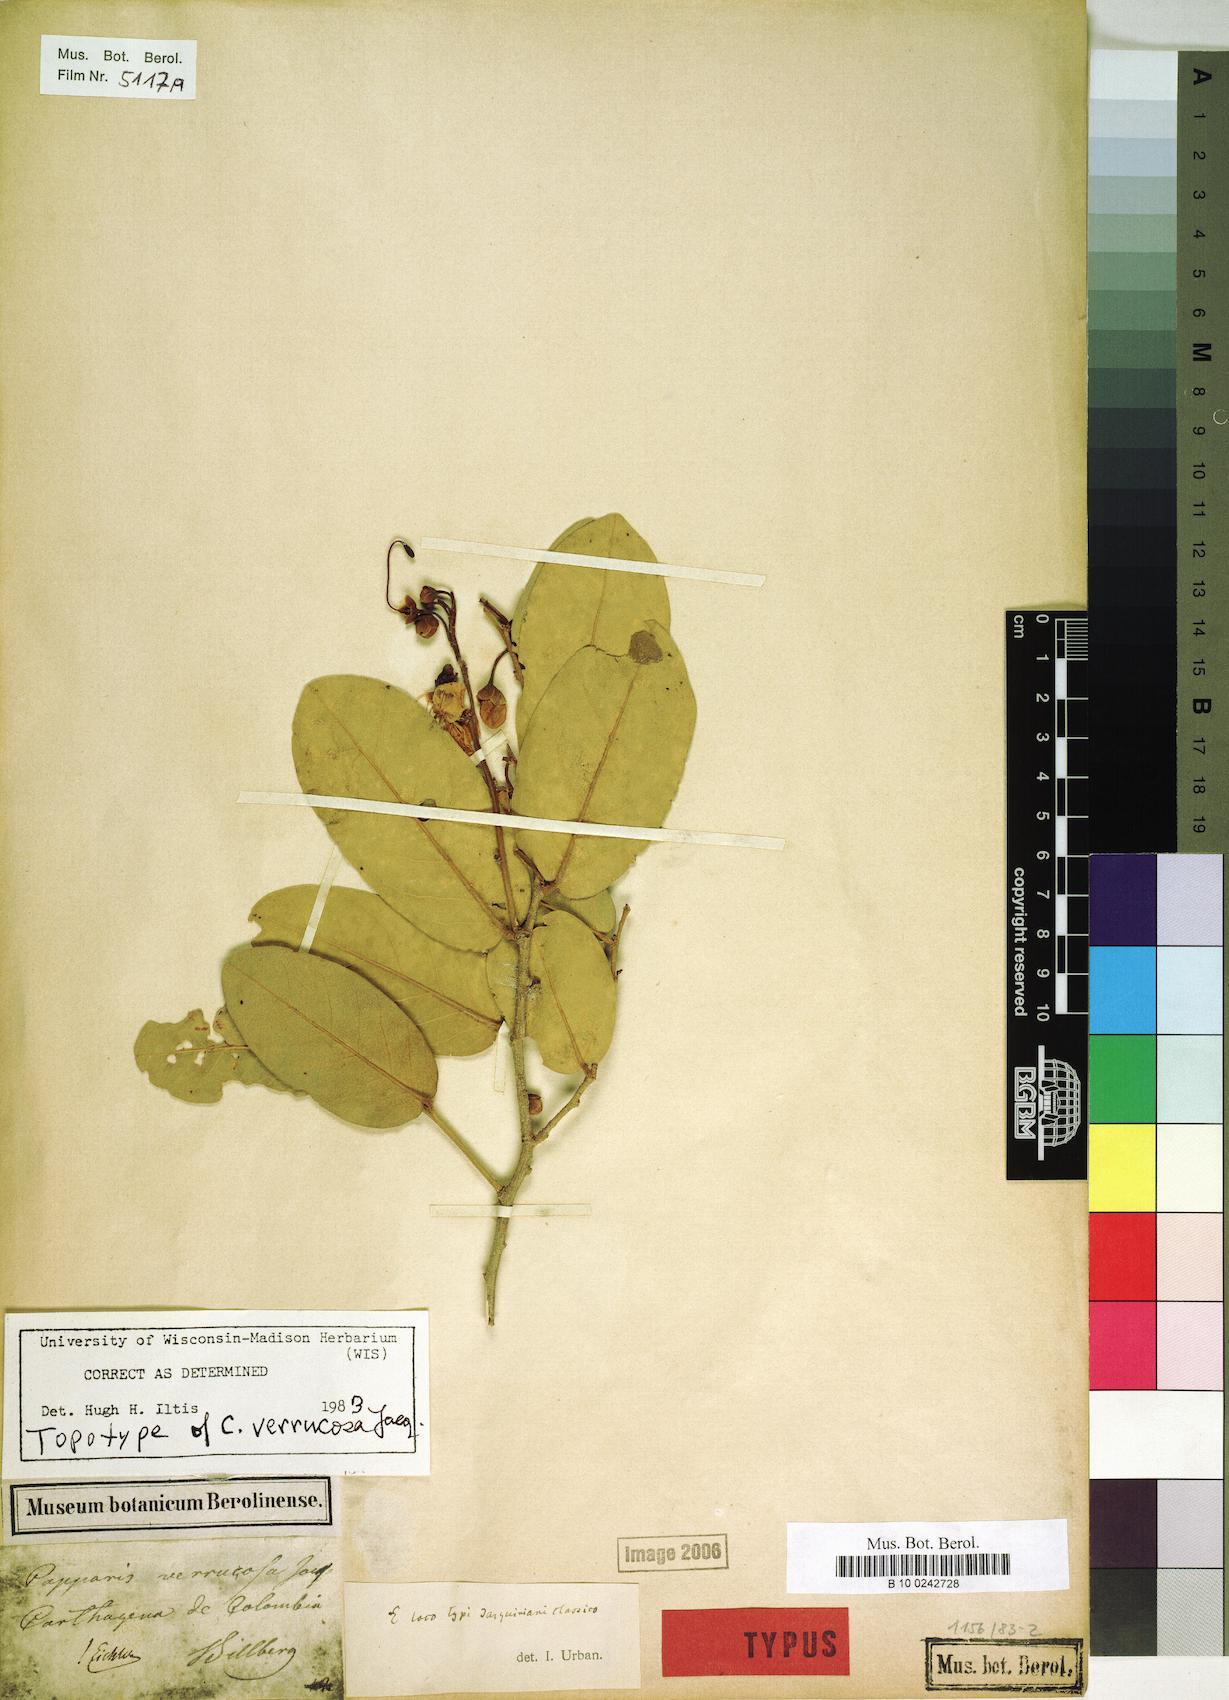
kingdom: Plantae
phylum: Tracheophyta
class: Magnoliopsida
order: Brassicales
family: Capparaceae
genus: Cynophalla
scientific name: Cynophalla verrucosa
